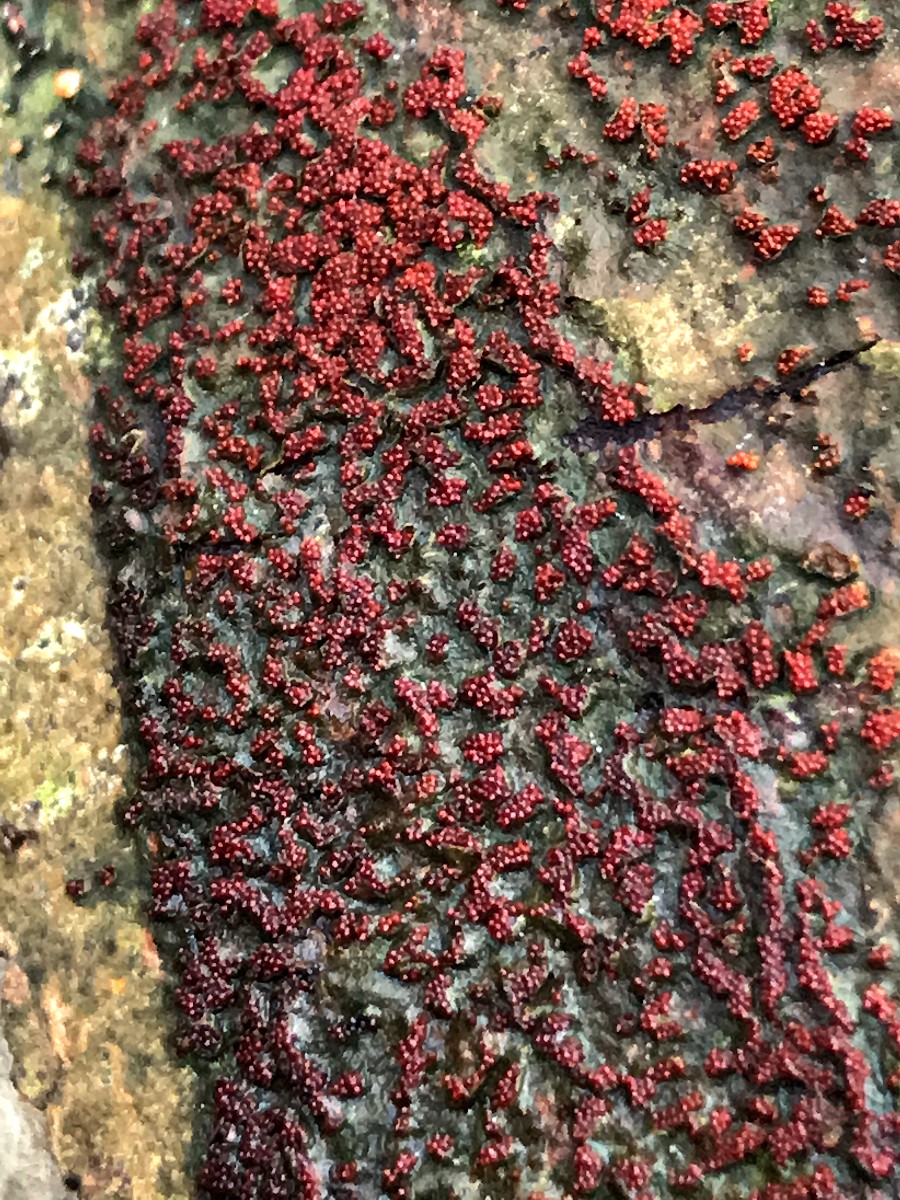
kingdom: Fungi
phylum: Ascomycota
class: Sordariomycetes
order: Hypocreales
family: Nectriaceae
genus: Nectria
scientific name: Nectria cinnabarina
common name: almindelig cinnobersvamp
